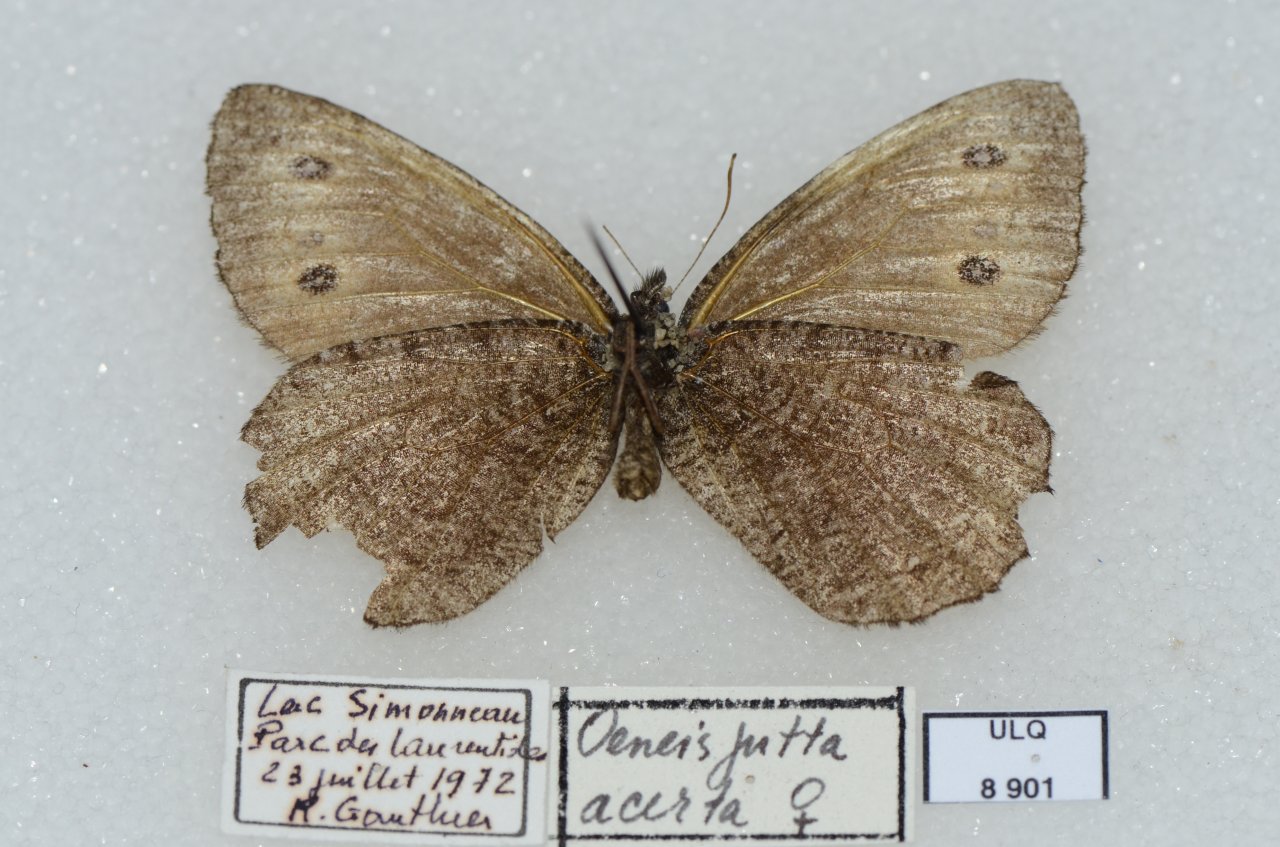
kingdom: Animalia
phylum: Arthropoda
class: Insecta
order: Lepidoptera
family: Nymphalidae
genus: Oeneis
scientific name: Oeneis jutta
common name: Jutta Arctic
